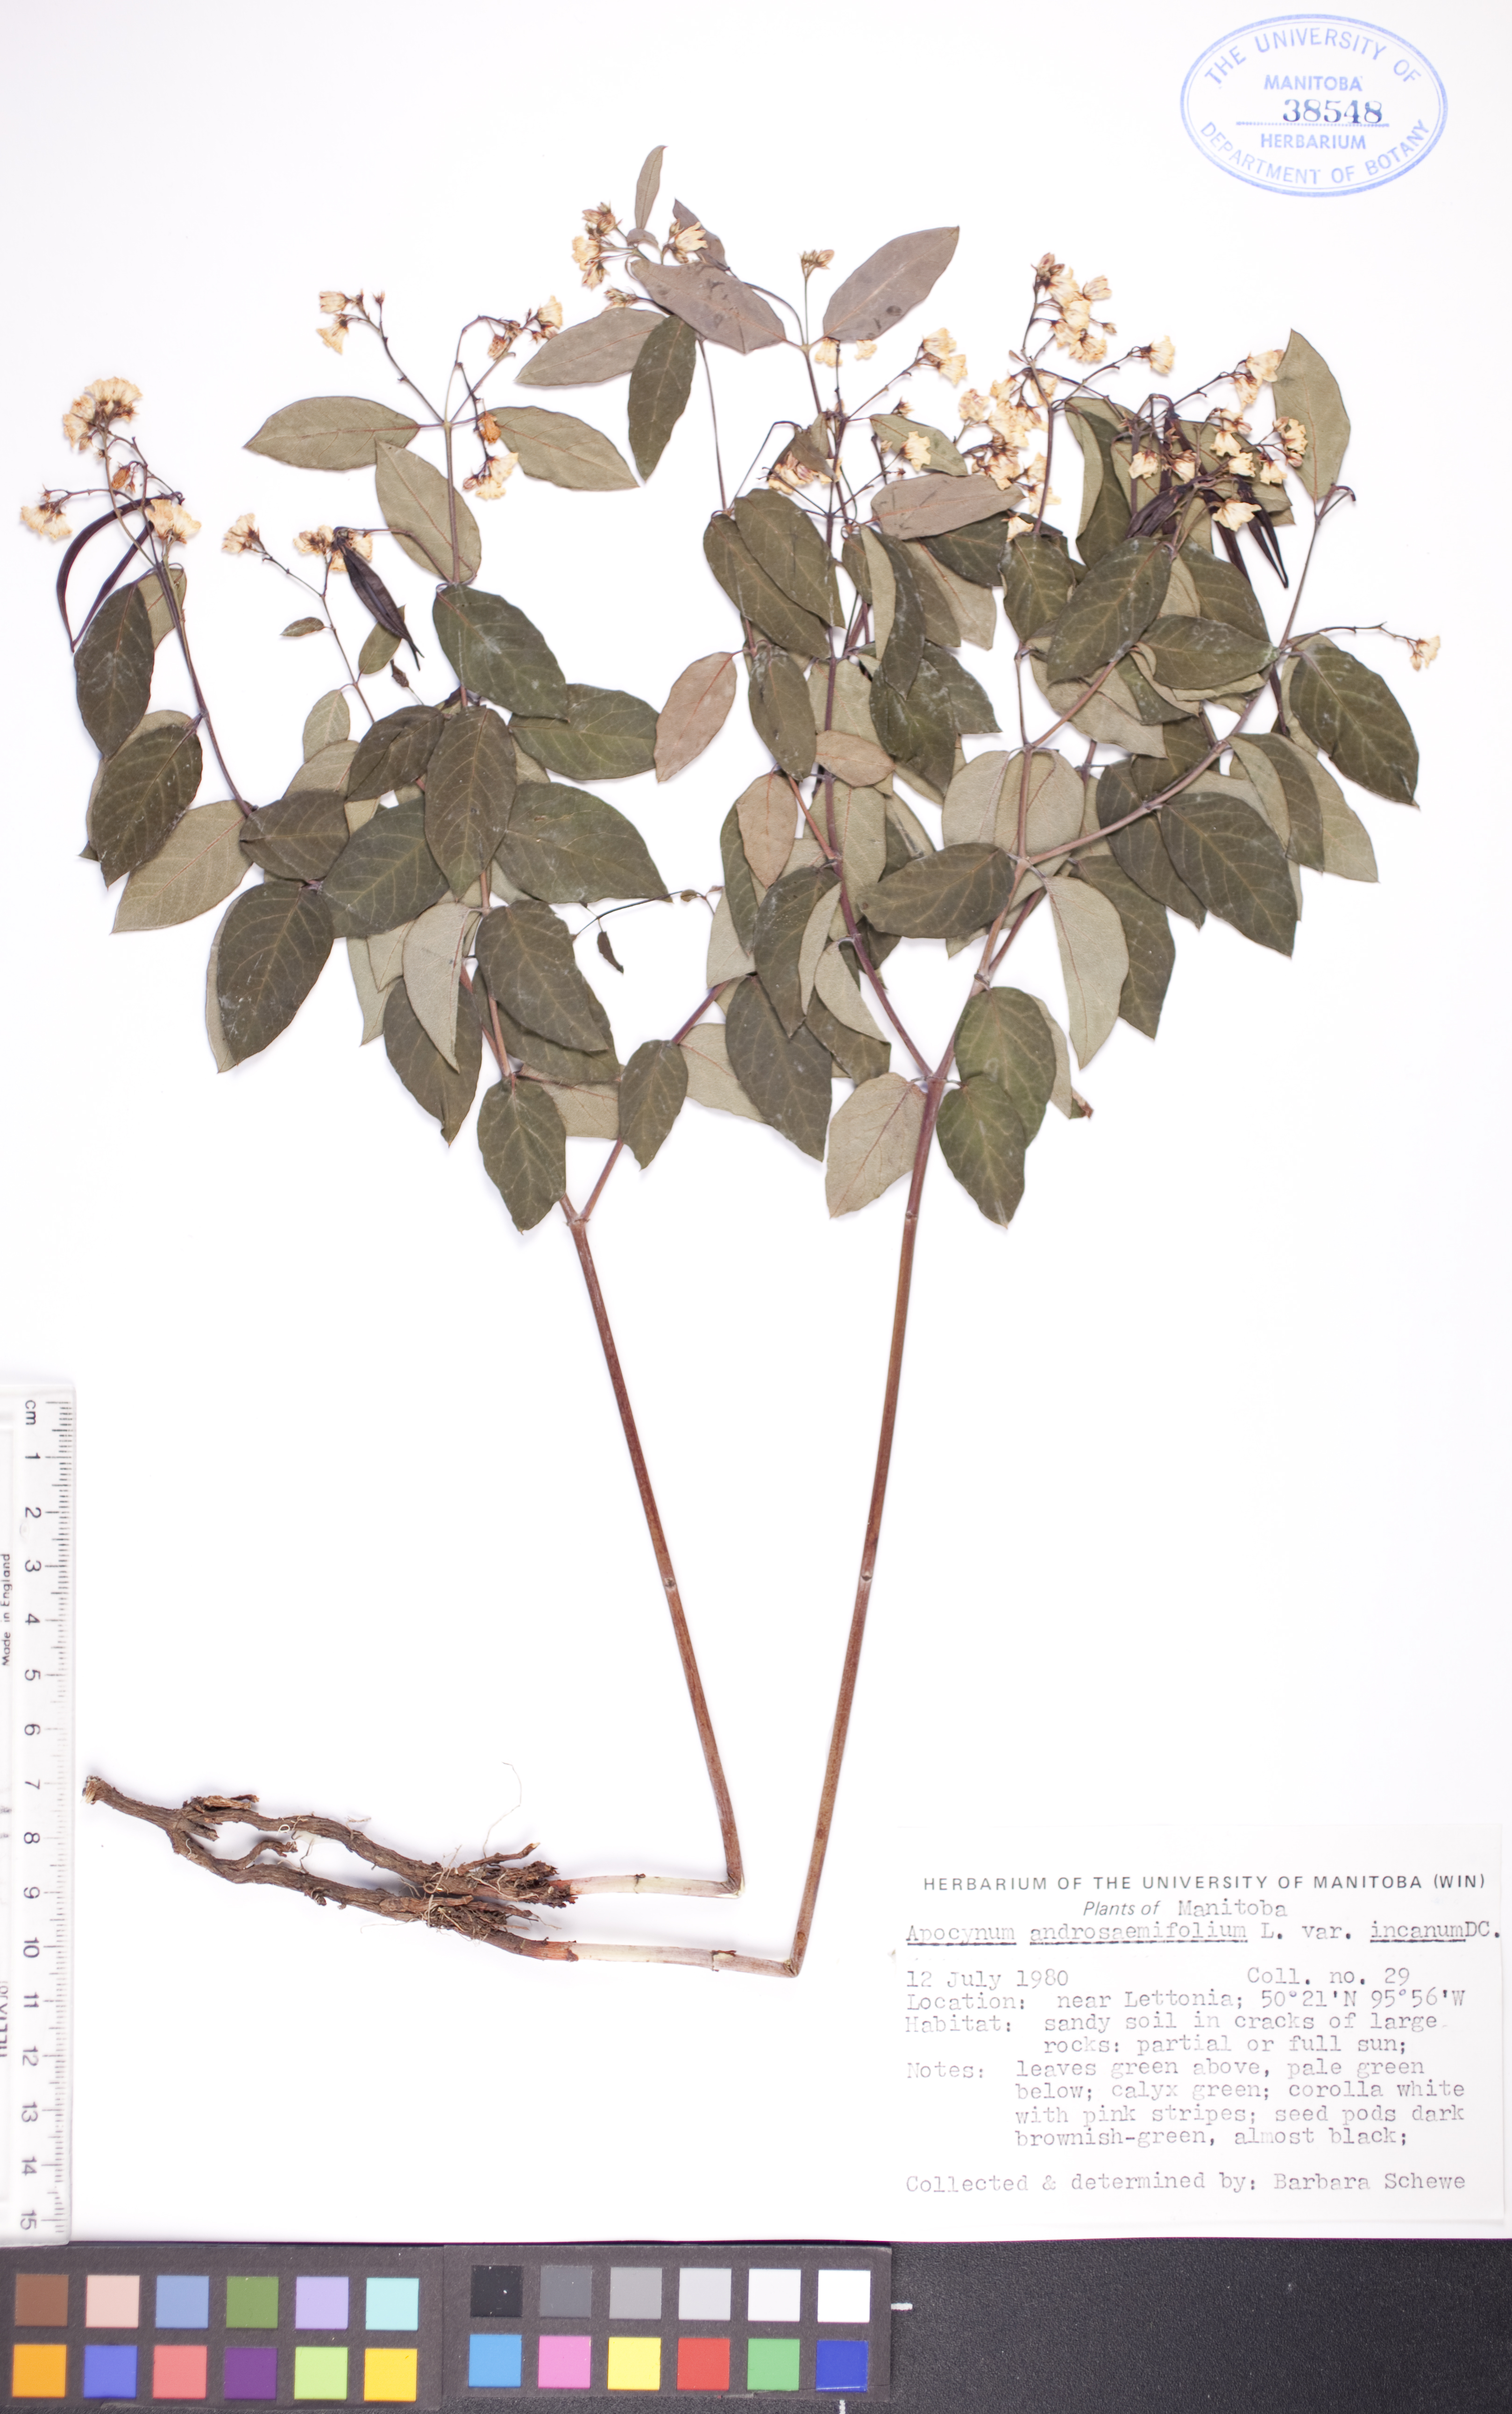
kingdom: Plantae
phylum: Tracheophyta
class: Magnoliopsida
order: Gentianales
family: Apocynaceae
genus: Apocynum
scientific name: Apocynum androsaemifolium
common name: Spreading dogbane
